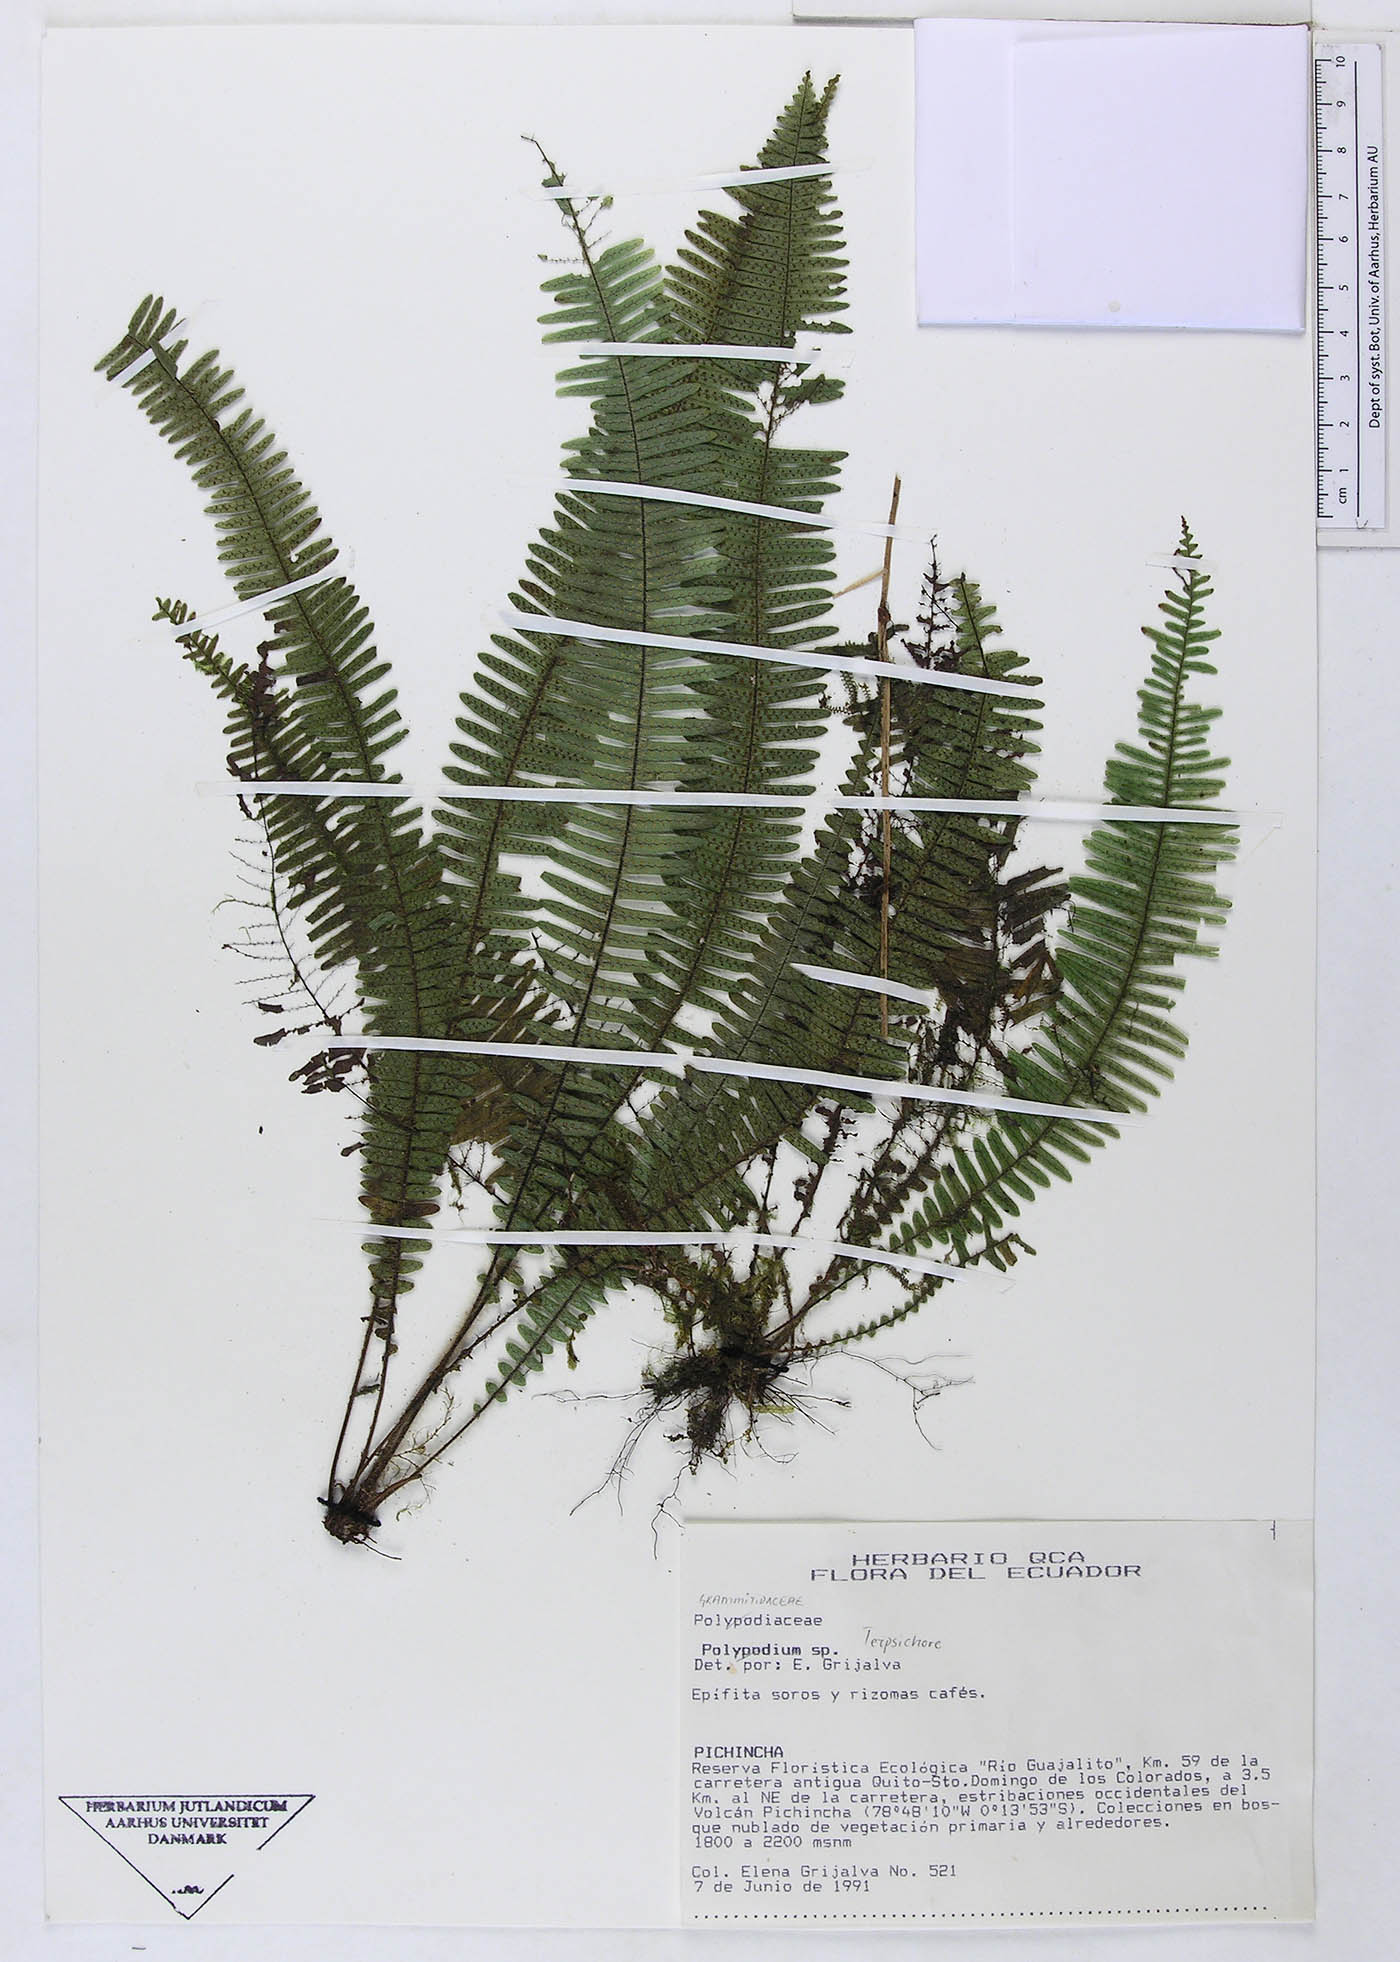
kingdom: Plantae
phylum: Tracheophyta
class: Polypodiopsida
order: Polypodiales
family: Polypodiaceae
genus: Terpsichore
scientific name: Terpsichore
